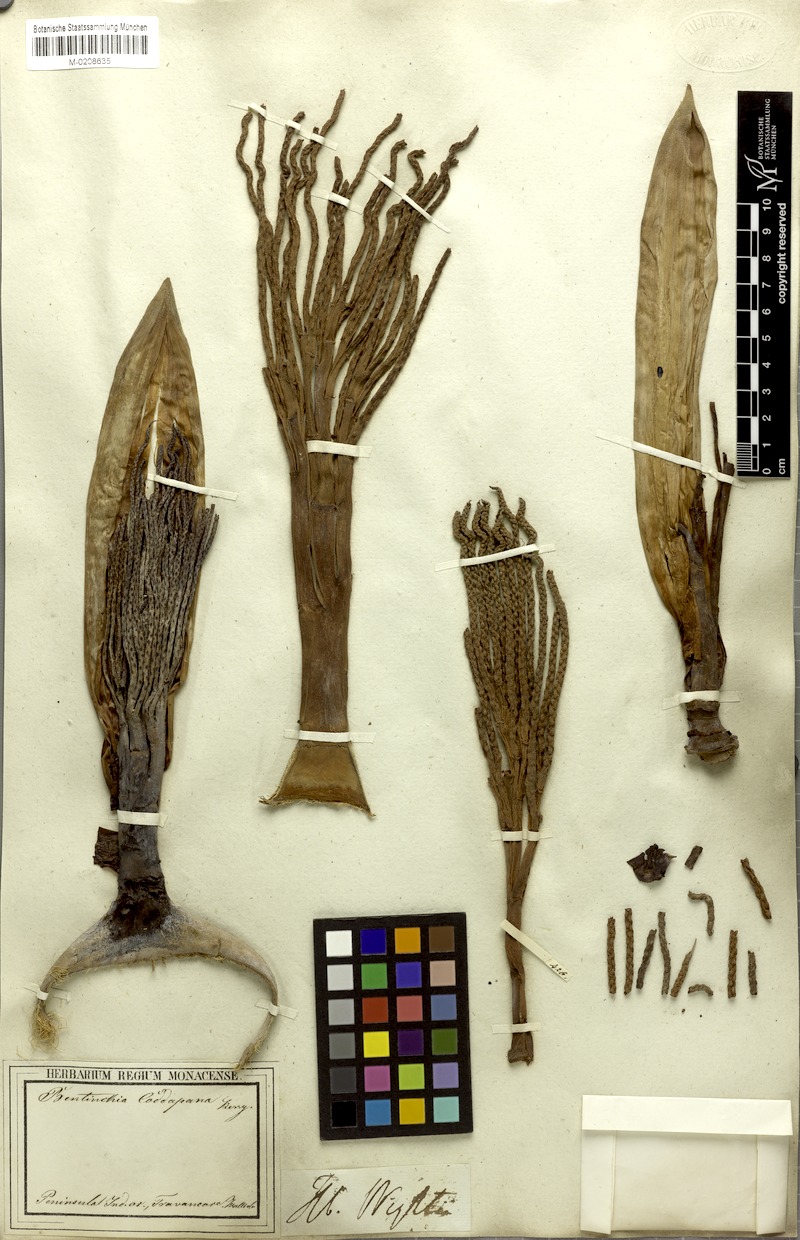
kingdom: Plantae
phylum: Tracheophyta
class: Liliopsida
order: Arecales
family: Arecaceae
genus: Bentinckia
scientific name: Bentinckia condapanna
